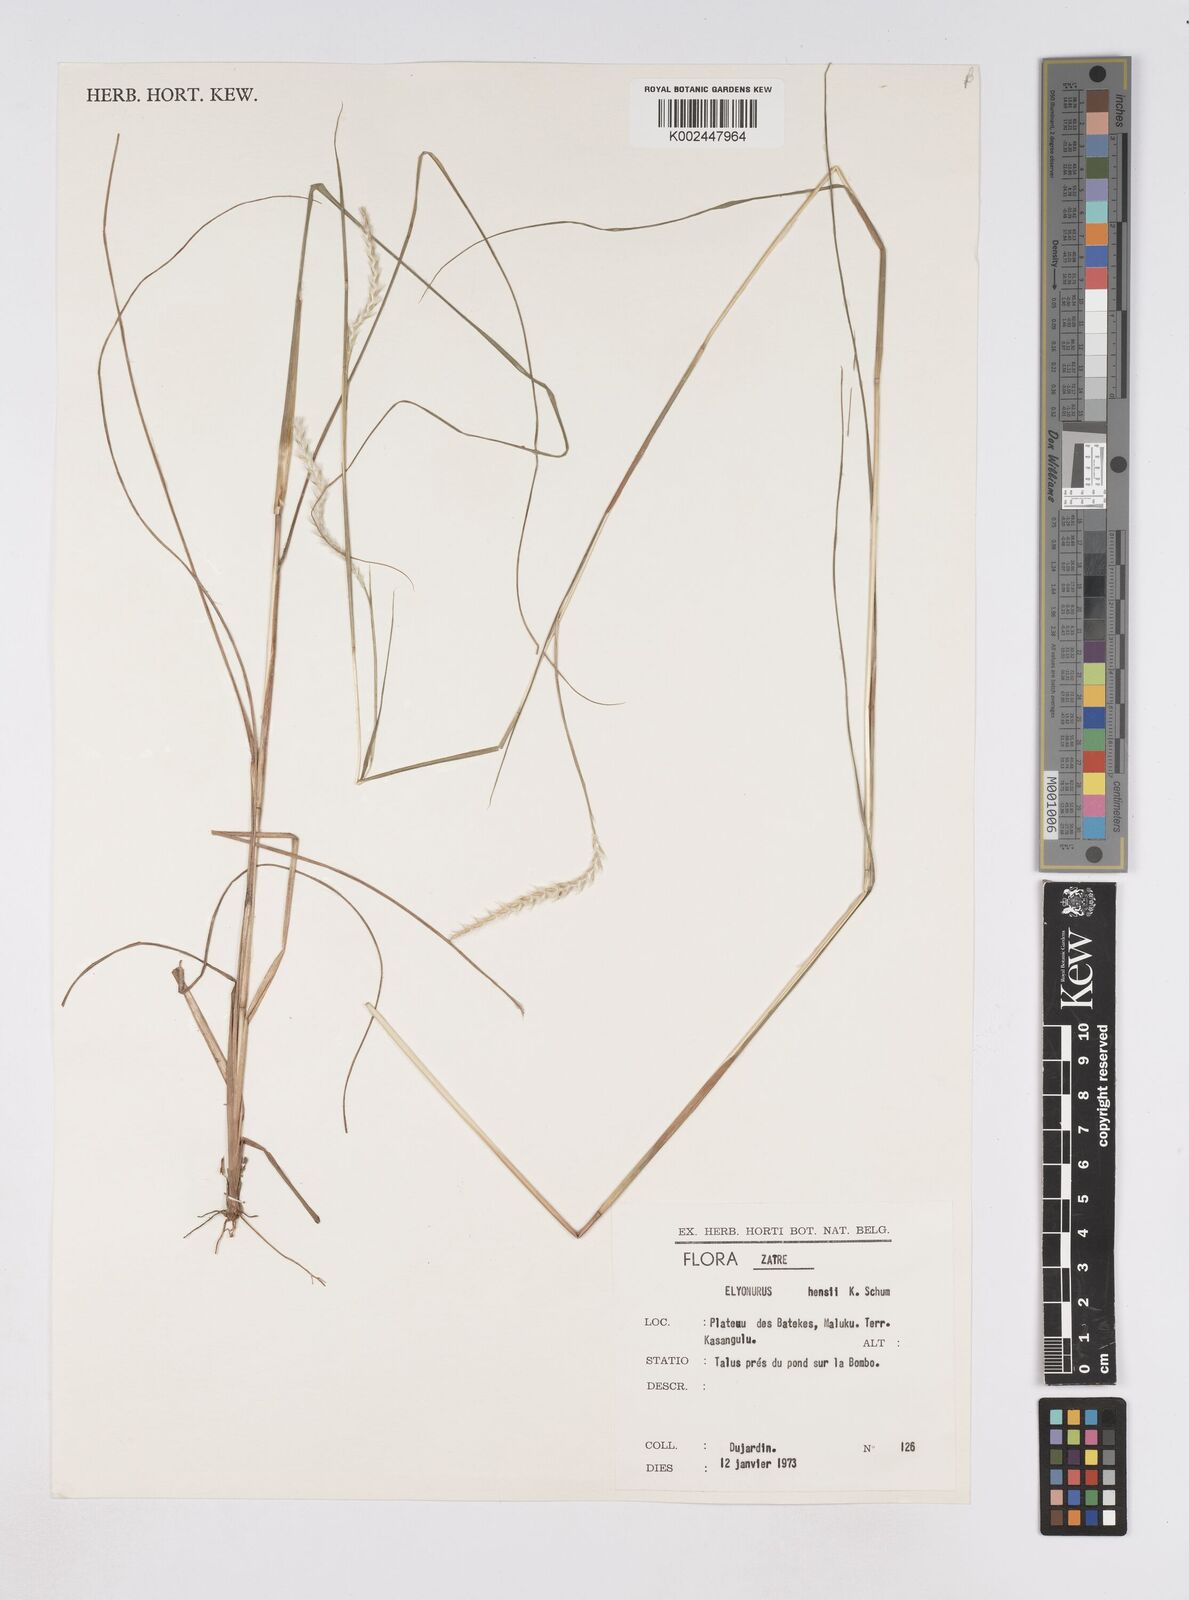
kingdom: Plantae
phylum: Tracheophyta
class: Liliopsida
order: Poales
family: Poaceae
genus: Elionurus
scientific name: Elionurus hensii
